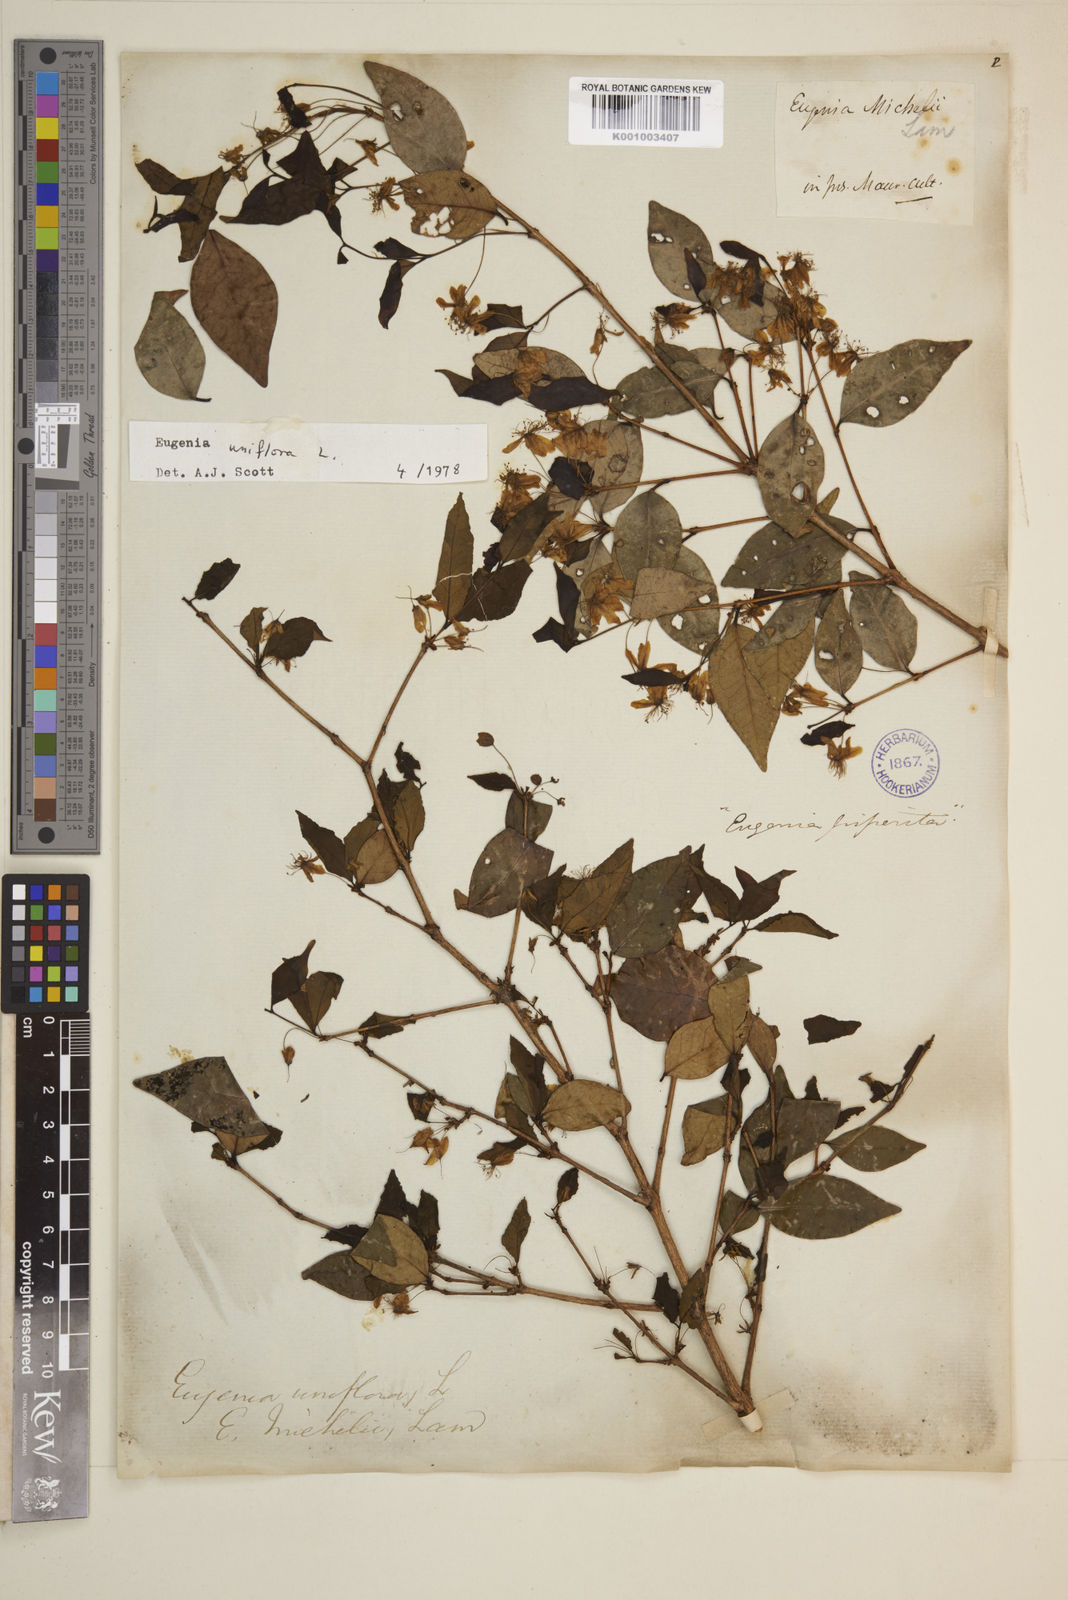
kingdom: Plantae
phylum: Tracheophyta
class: Magnoliopsida
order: Myrtales
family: Myrtaceae
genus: Eugenia
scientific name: Eugenia uniflora
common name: Surinam cherry
